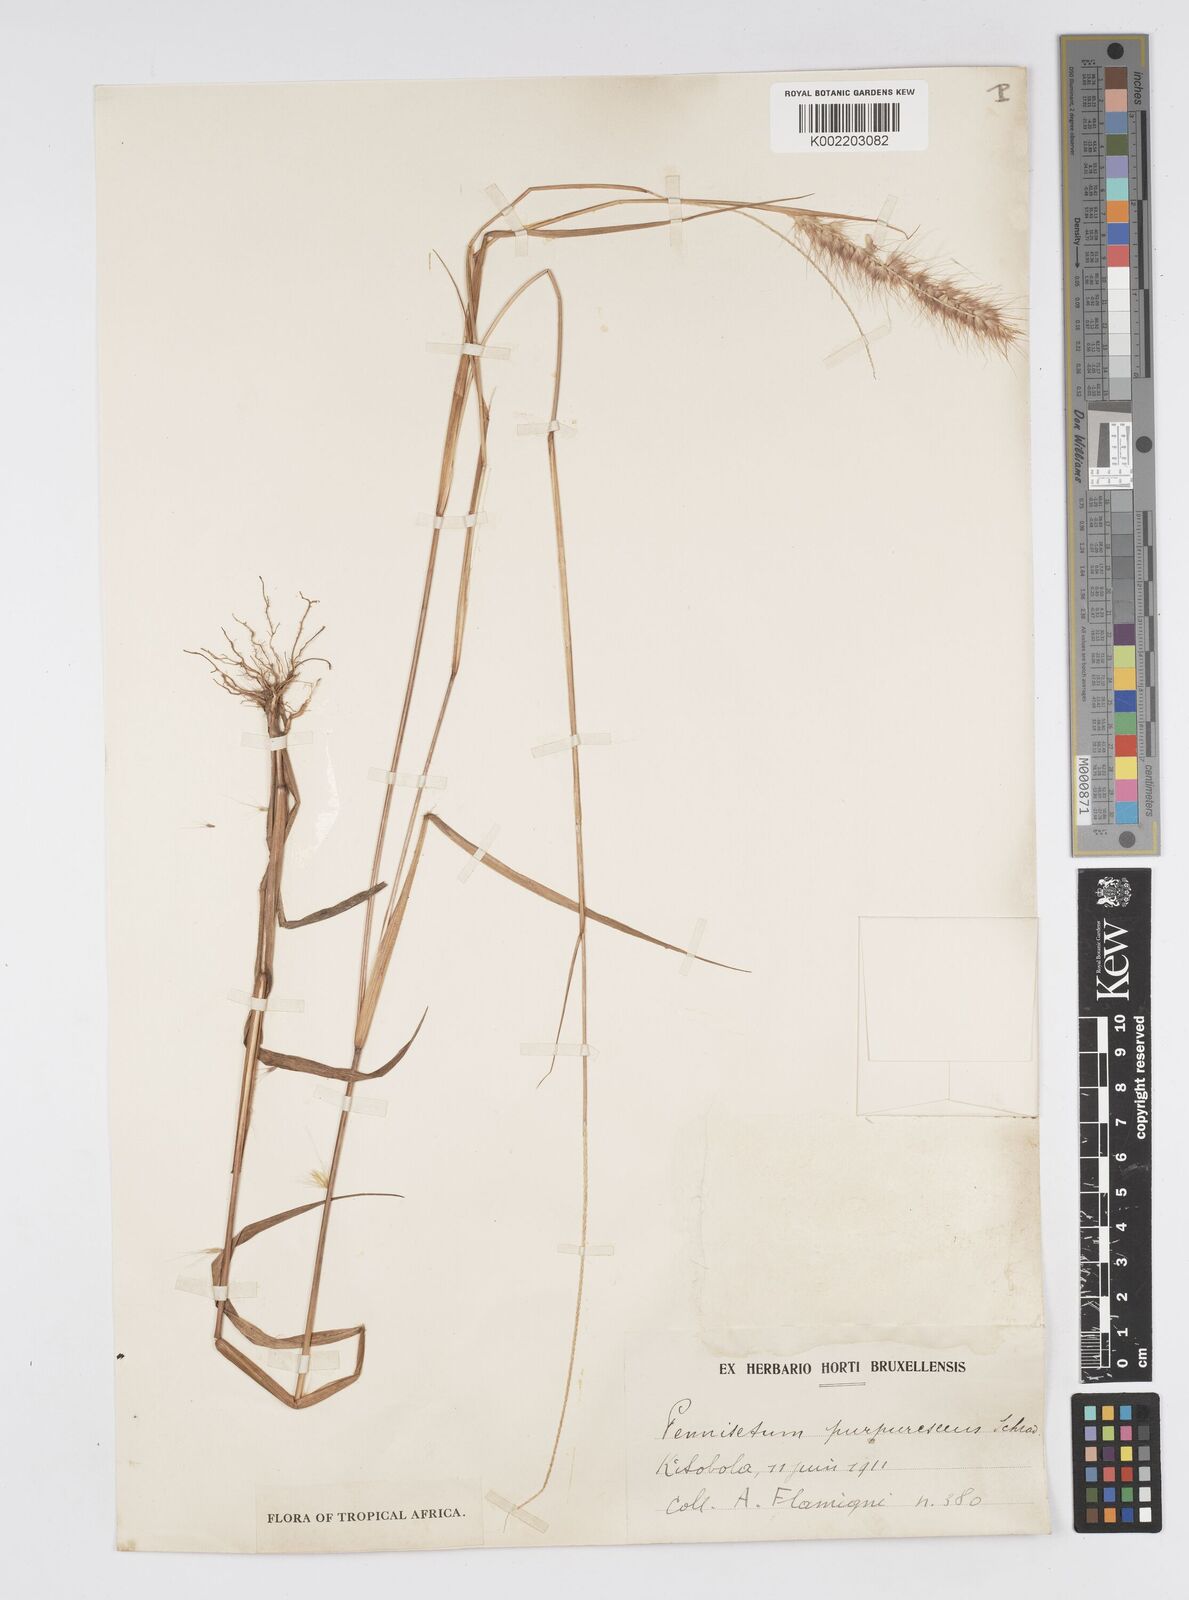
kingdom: Plantae
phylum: Tracheophyta
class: Liliopsida
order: Poales
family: Poaceae
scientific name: Poaceae
